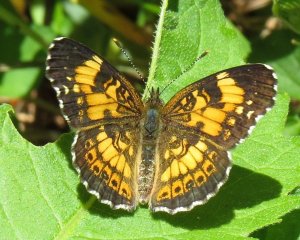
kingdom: Animalia
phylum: Arthropoda
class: Insecta
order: Lepidoptera
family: Nymphalidae
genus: Chlosyne
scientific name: Chlosyne nycteis
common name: Silvery Checkerspot
